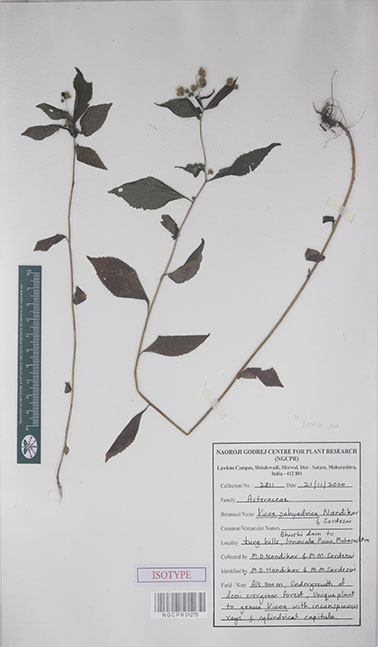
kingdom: Plantae
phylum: Tracheophyta
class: Magnoliopsida
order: Asterales
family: Asteraceae
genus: Vicoa
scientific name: Vicoa sahyadrica
